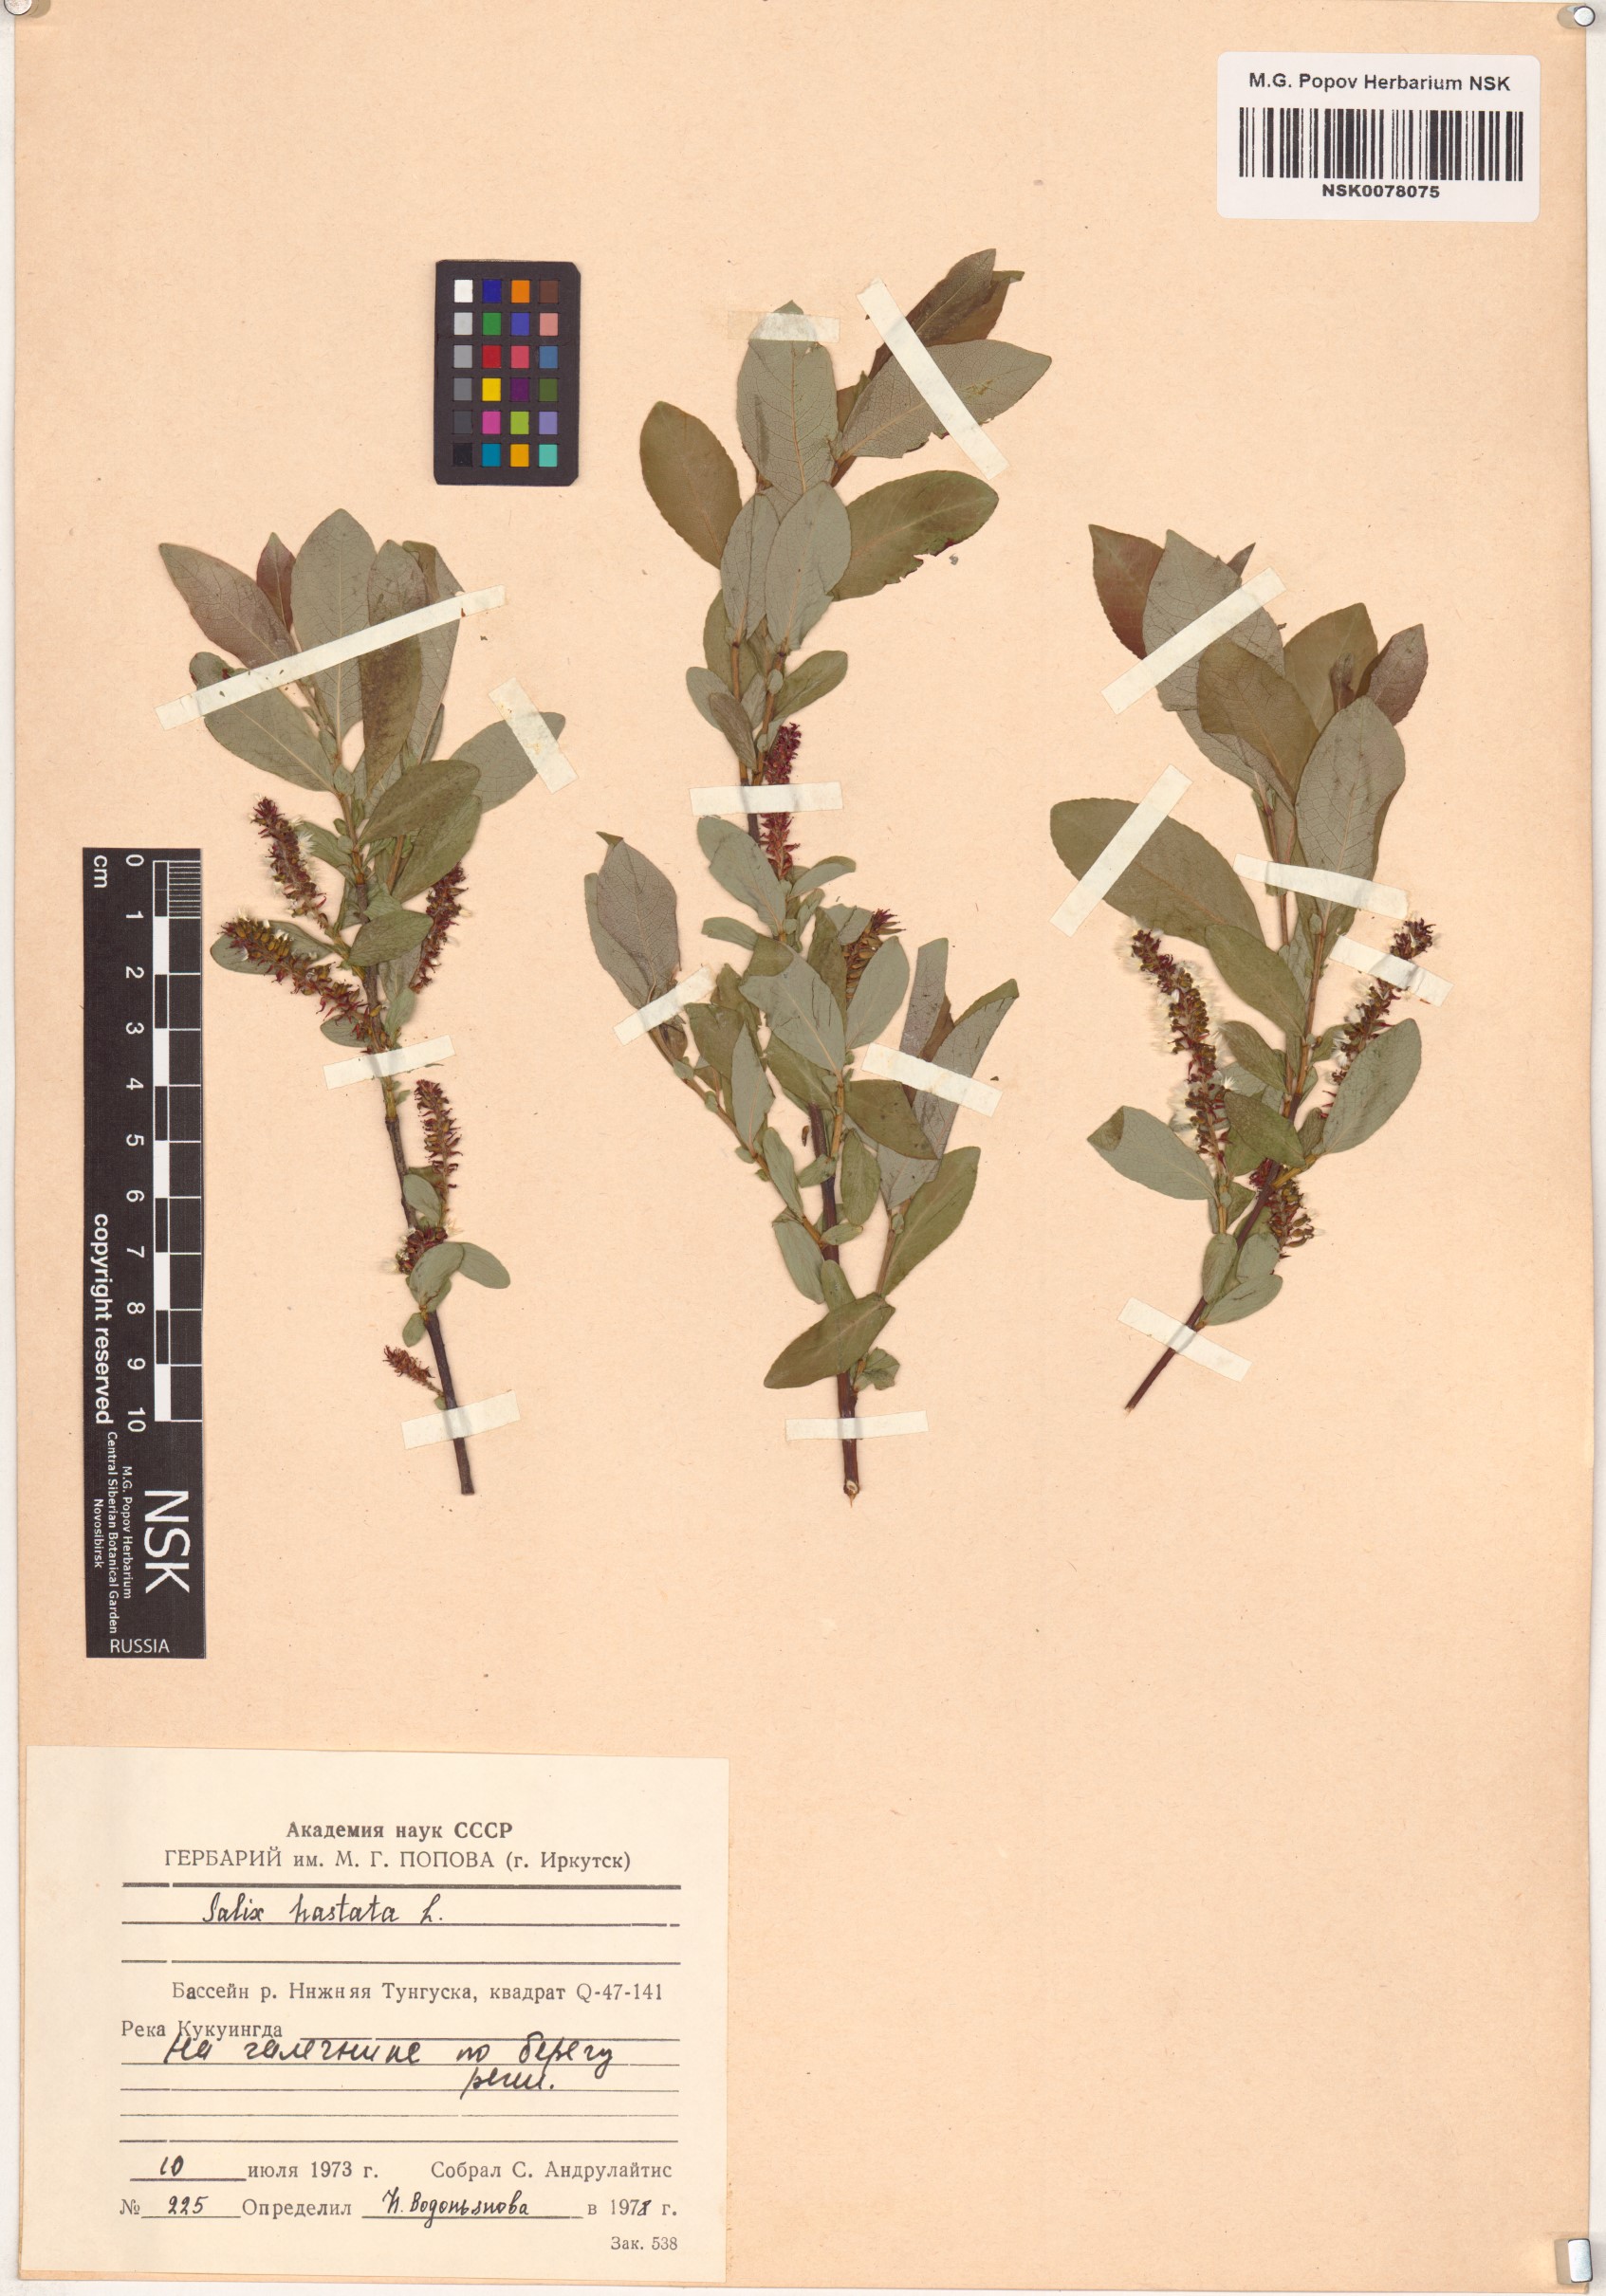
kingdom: Plantae
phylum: Tracheophyta
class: Magnoliopsida
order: Malpighiales
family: Salicaceae
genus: Salix
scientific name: Salix hastata
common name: Halberd willow
